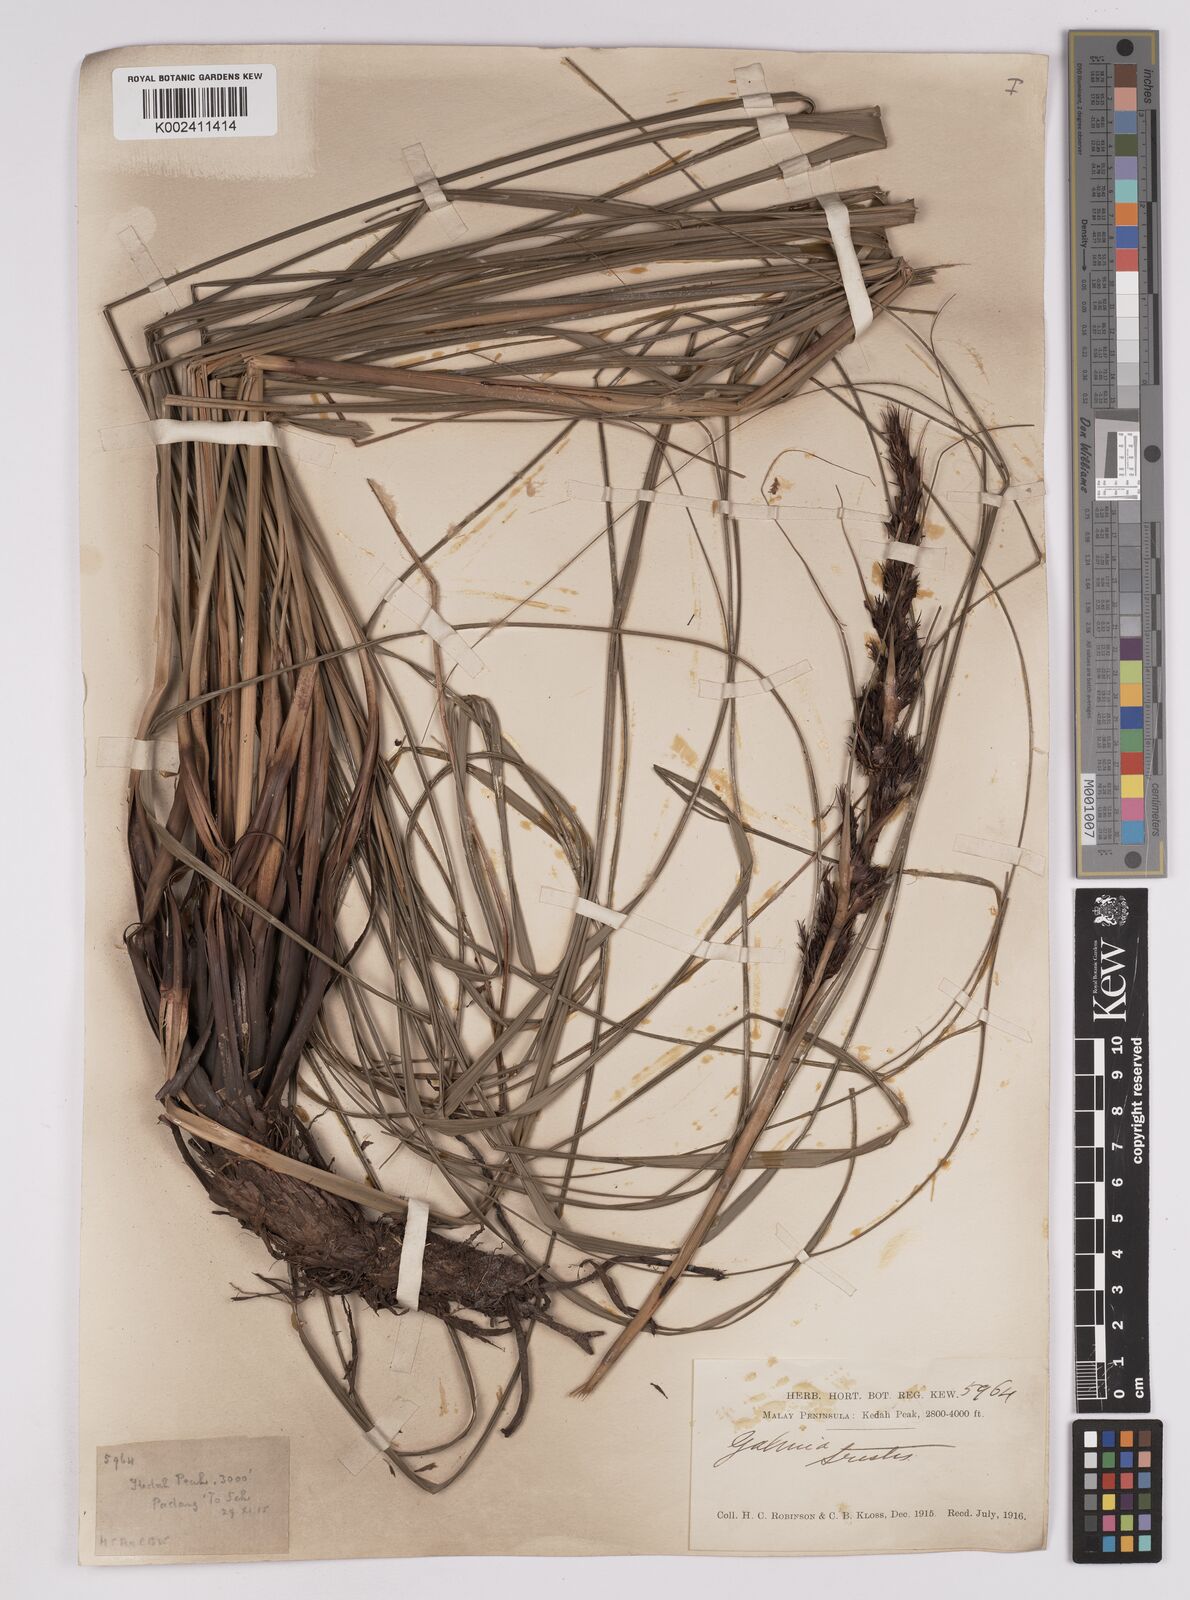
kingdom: Plantae
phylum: Tracheophyta
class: Liliopsida
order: Poales
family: Cyperaceae
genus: Gahnia
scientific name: Gahnia tristis
